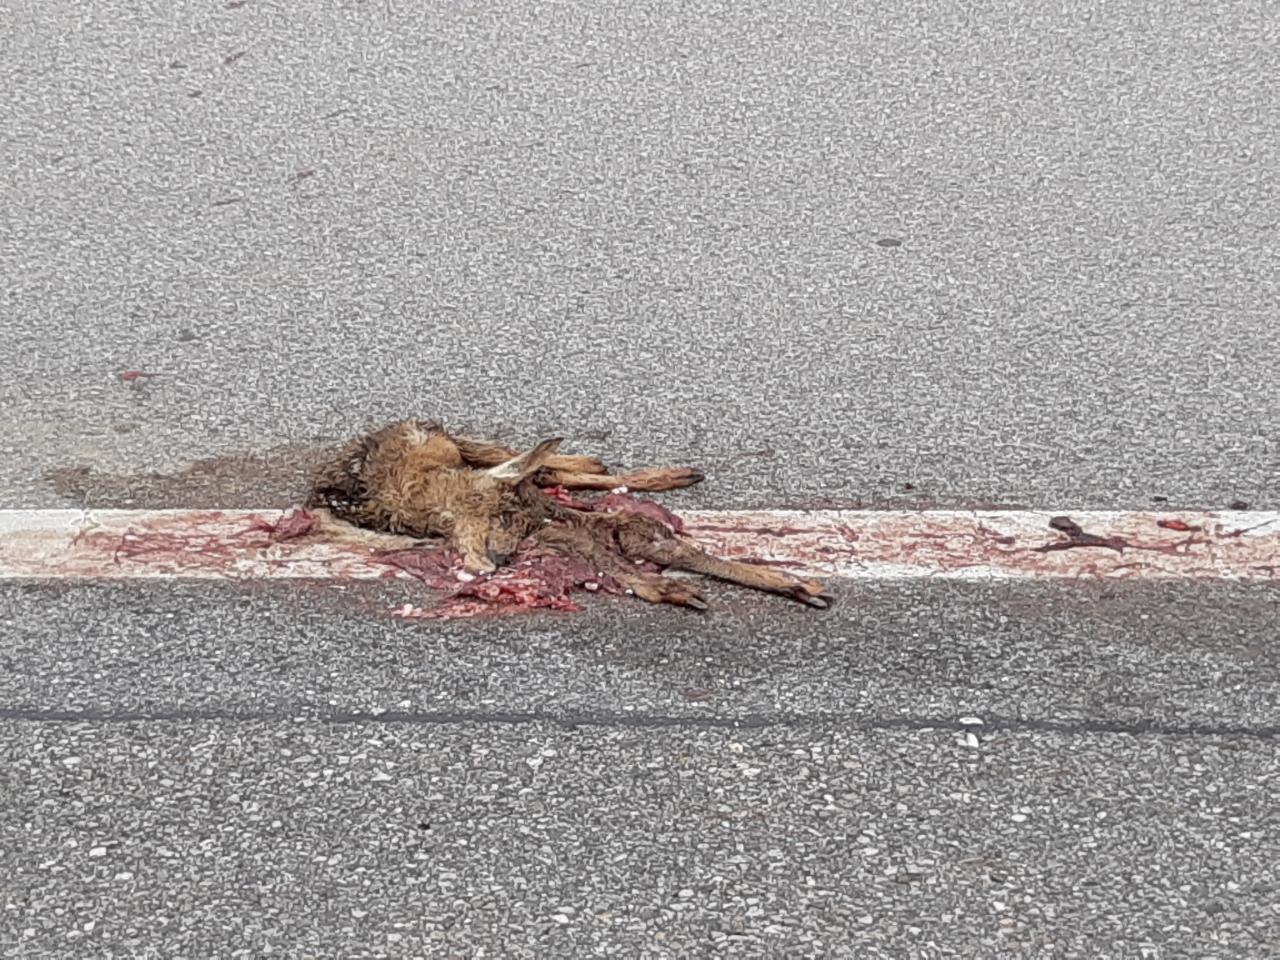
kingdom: Animalia
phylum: Chordata
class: Mammalia
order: Artiodactyla
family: Cervidae
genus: Capreolus
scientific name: Capreolus capreolus
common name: Western roe deer
